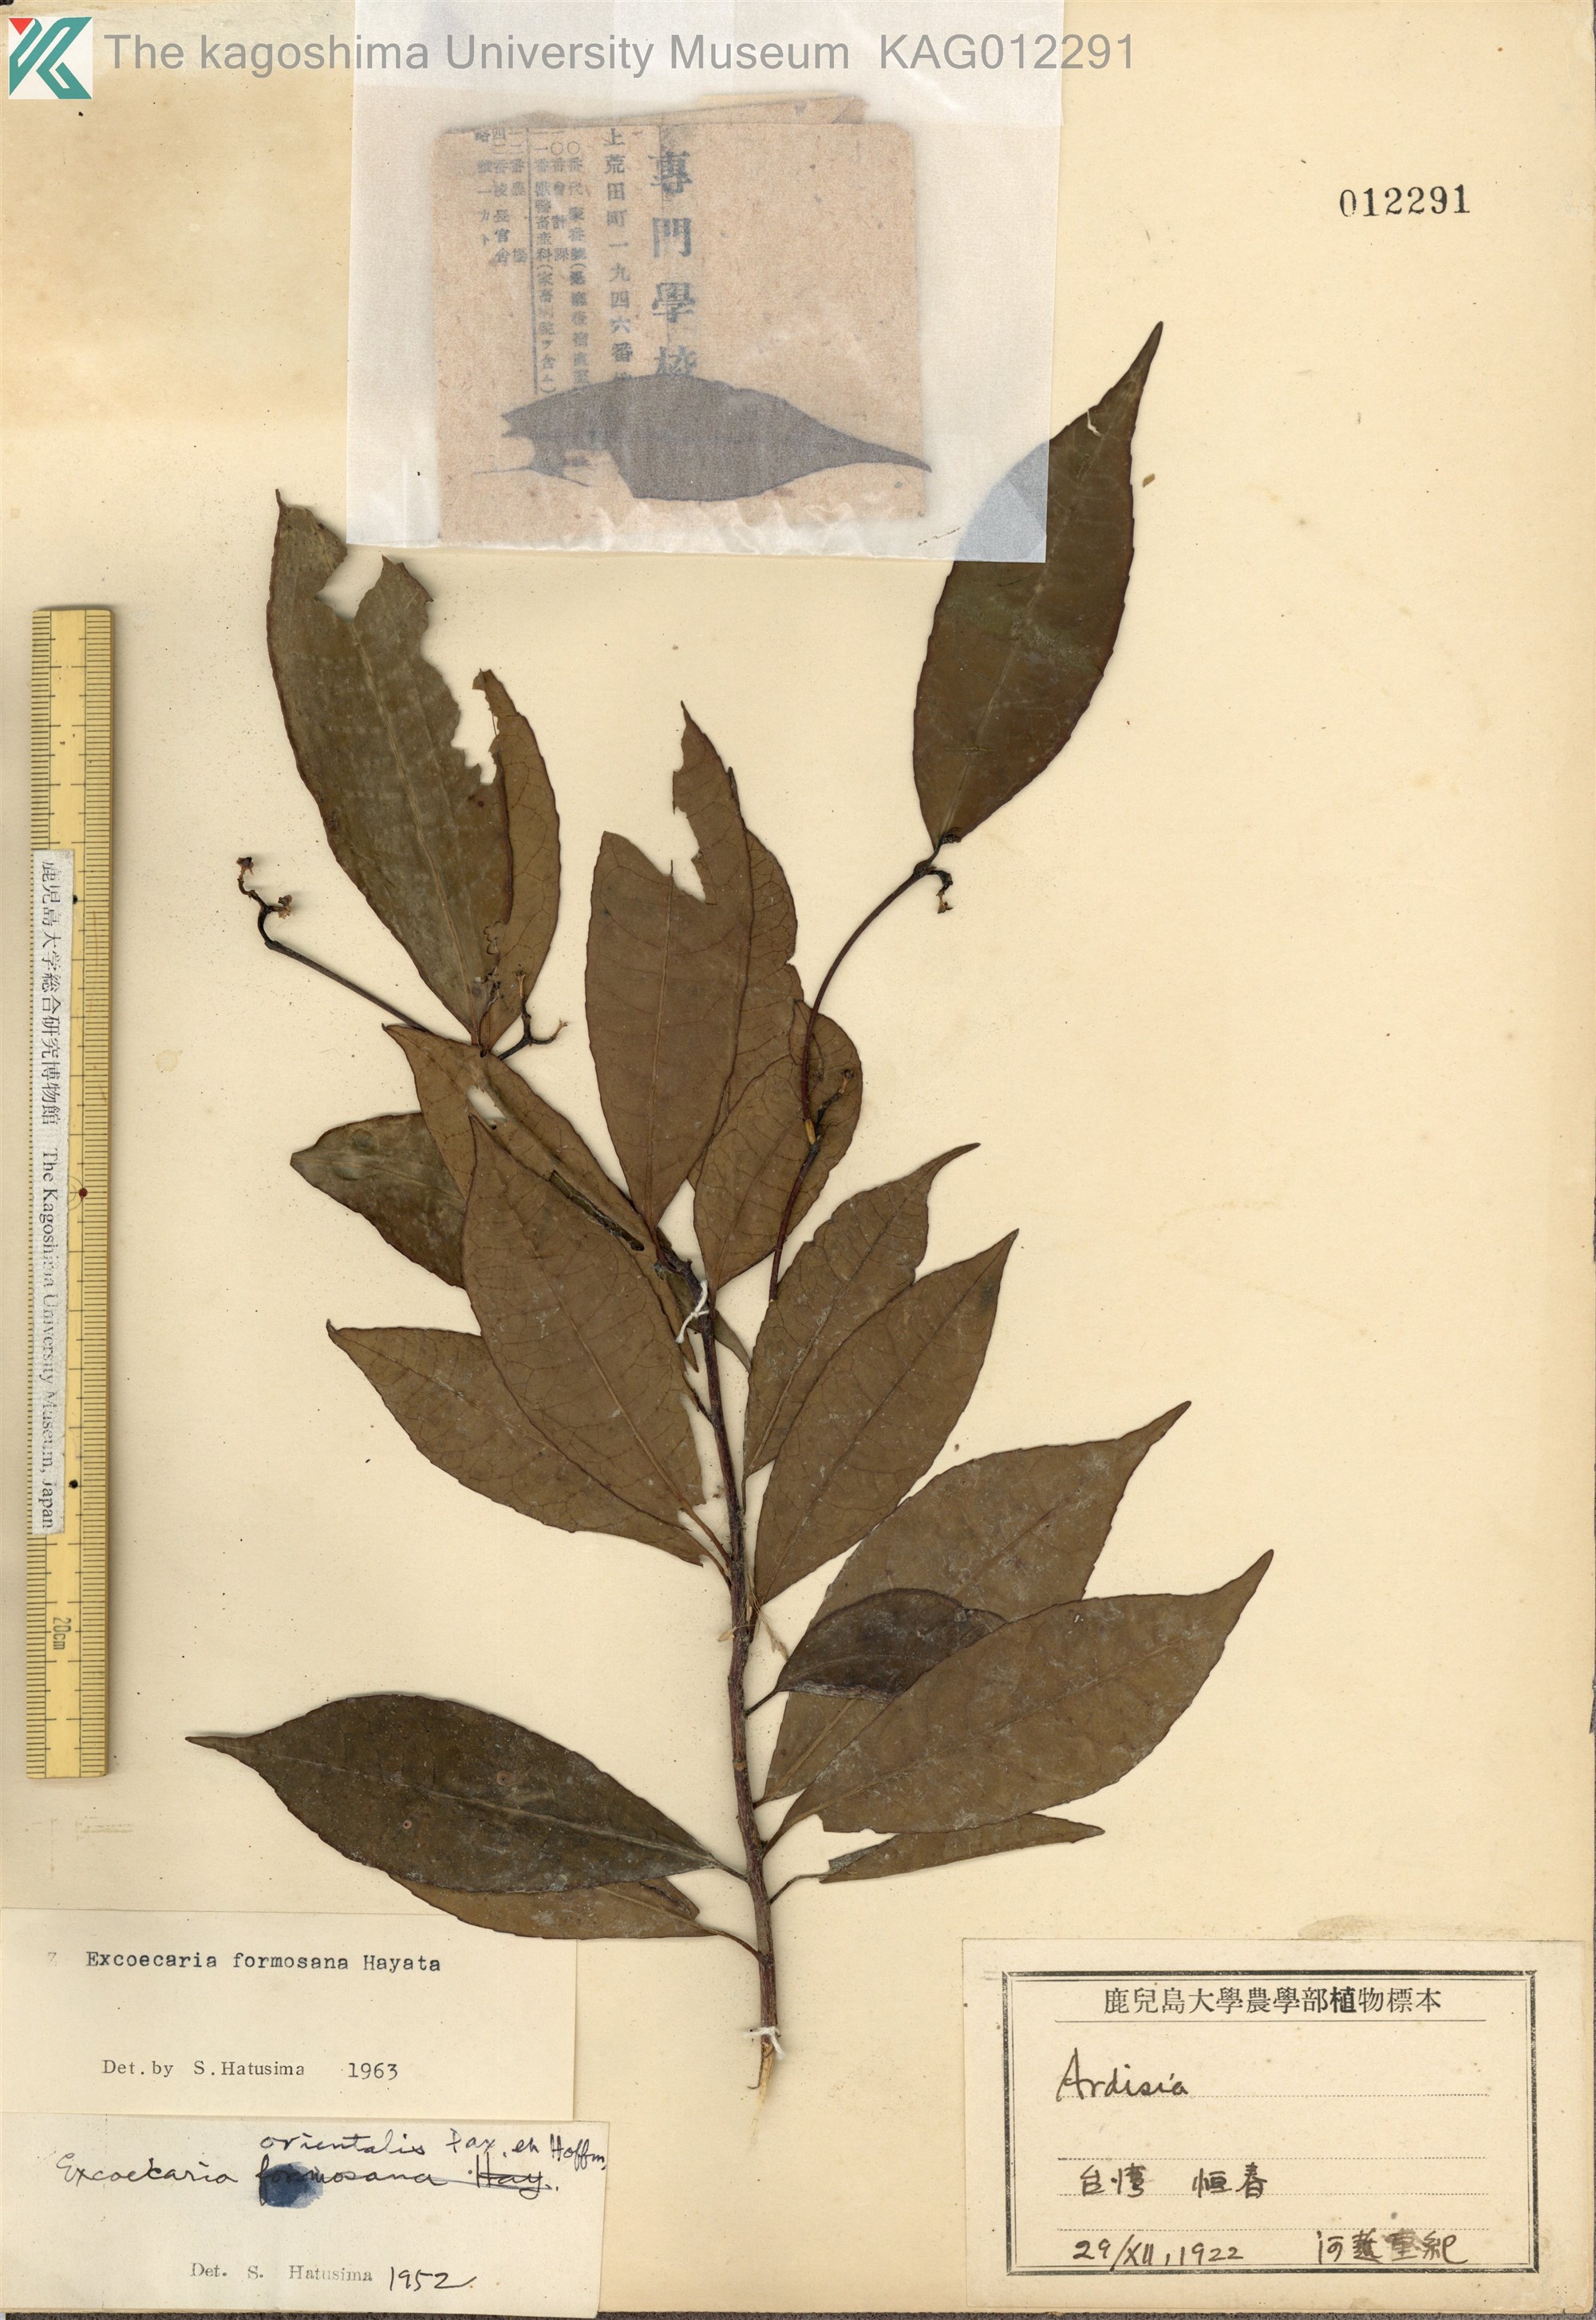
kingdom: Plantae
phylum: Tracheophyta
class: Magnoliopsida
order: Malpighiales
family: Euphorbiaceae
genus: Excoecaria
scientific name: Excoecaria formosana
